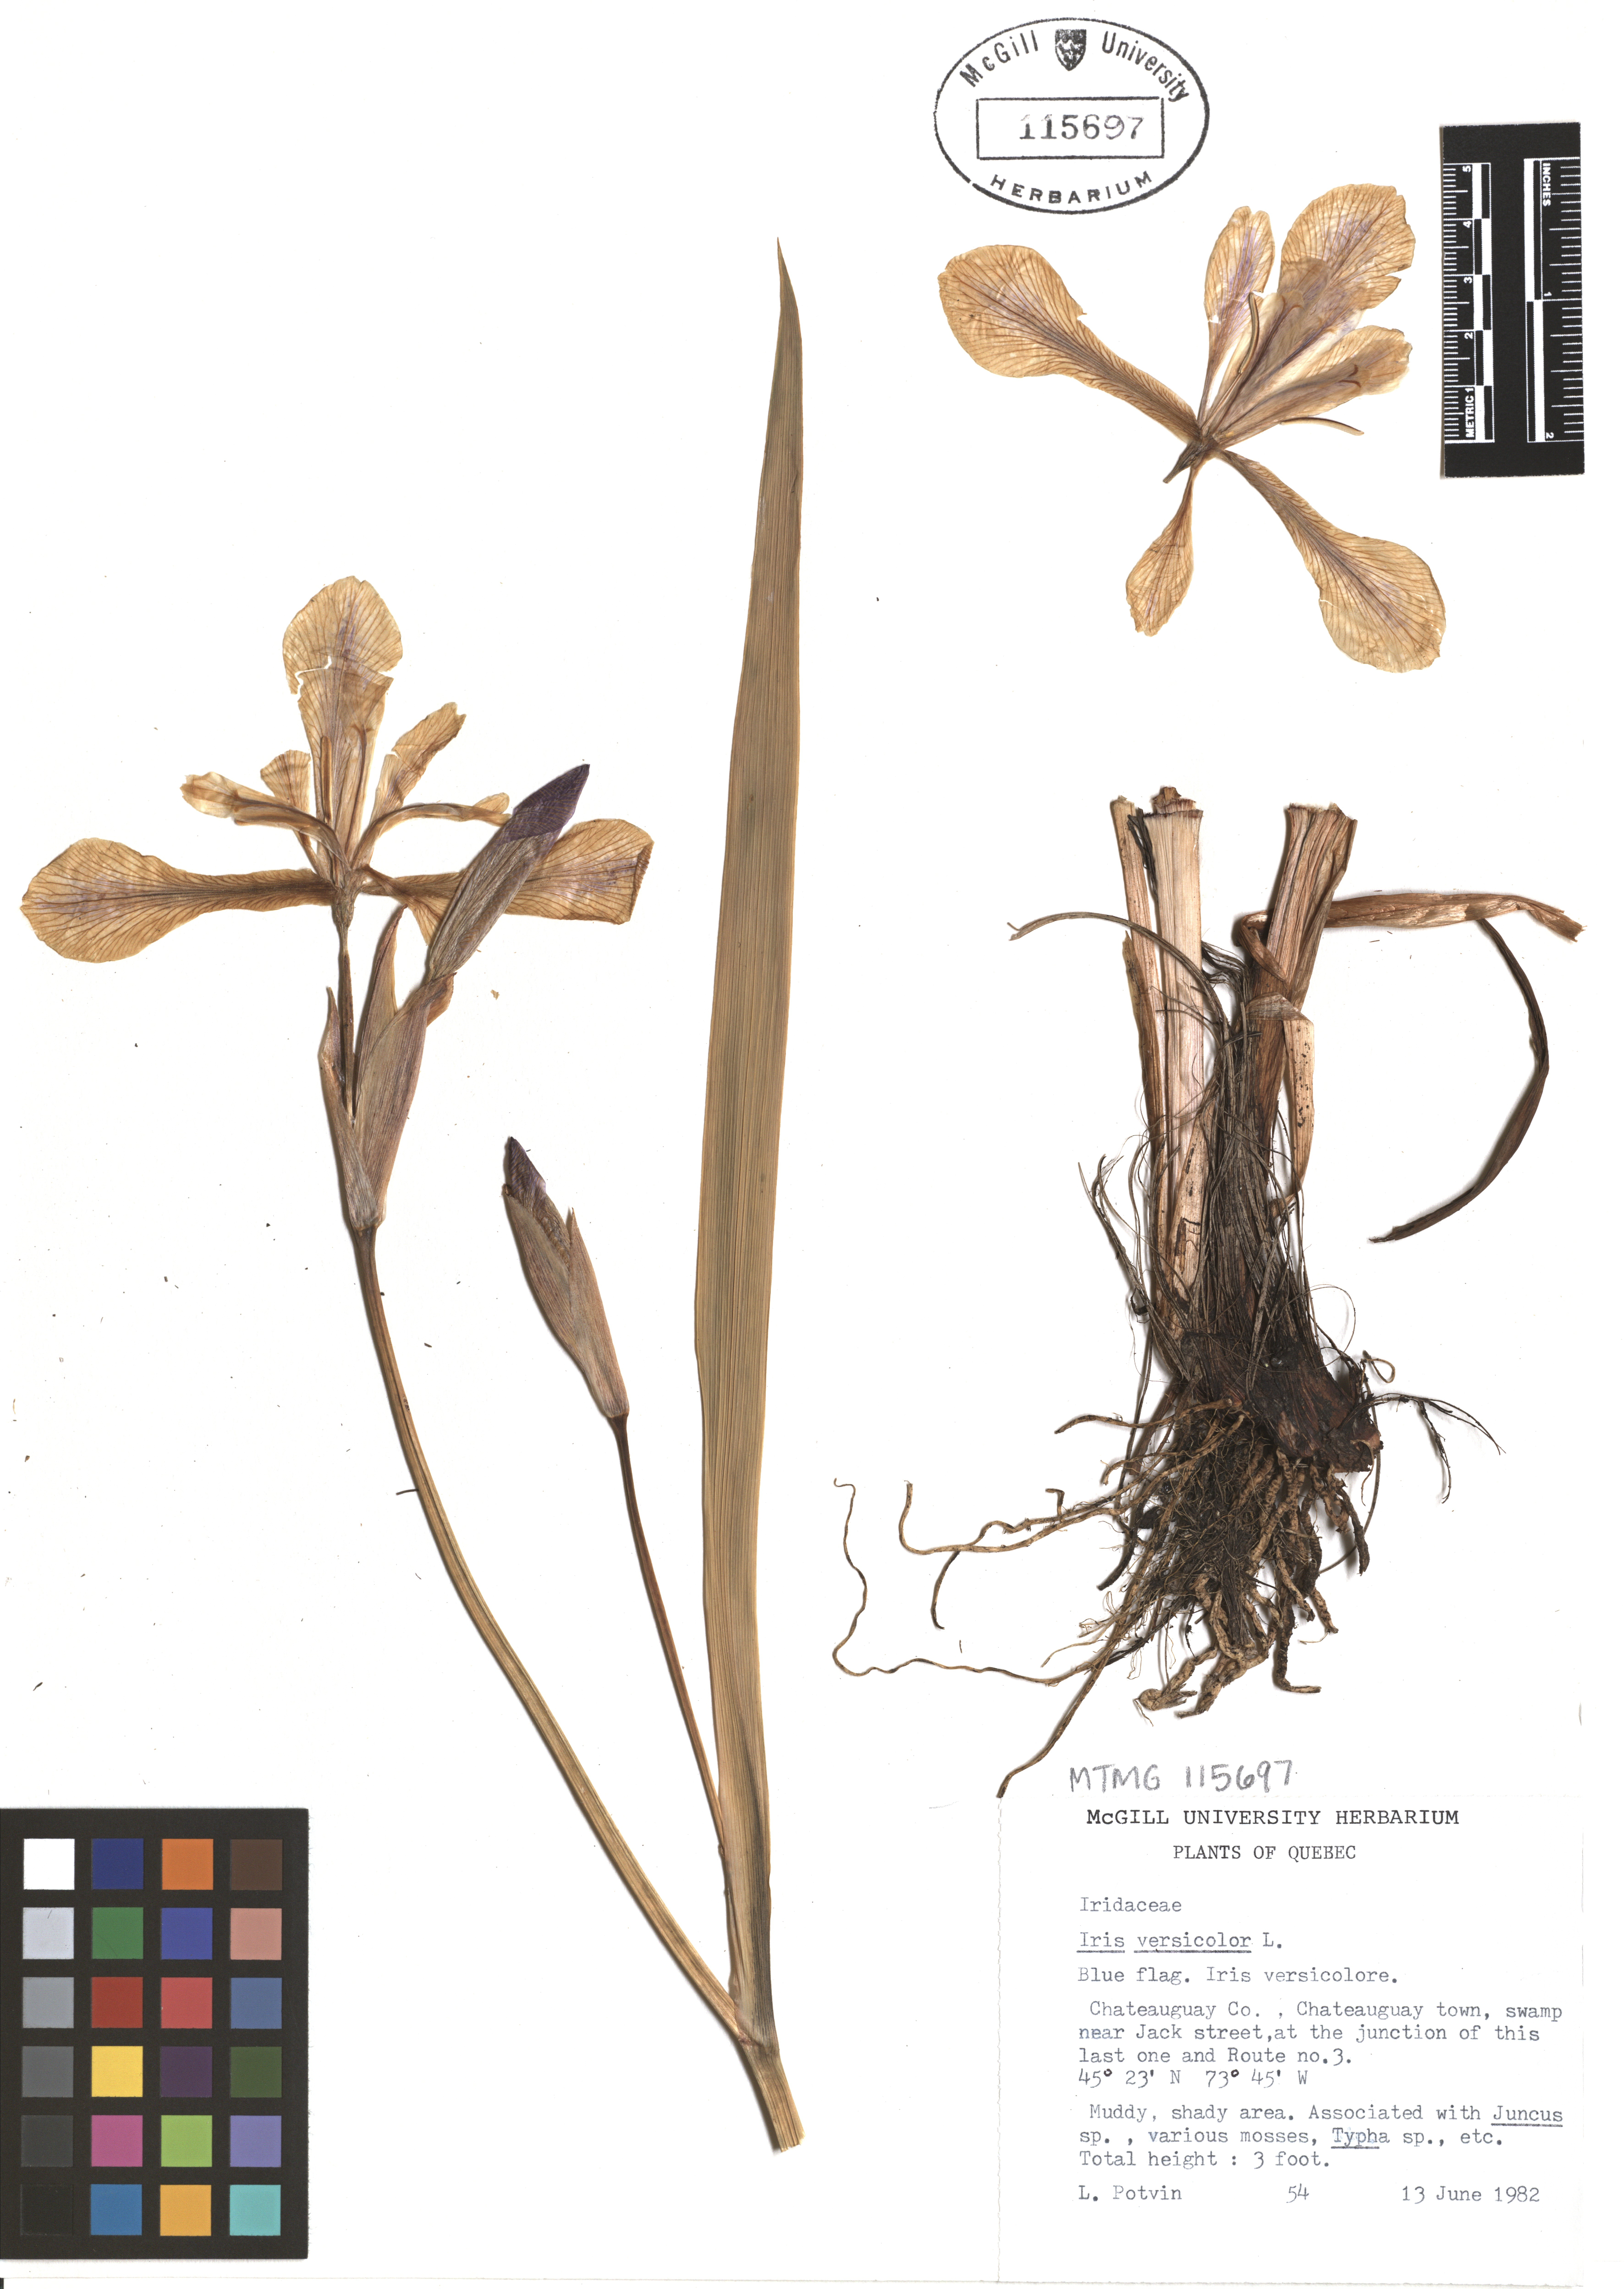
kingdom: Plantae
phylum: Tracheophyta
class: Liliopsida
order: Asparagales
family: Iridaceae
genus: Iris
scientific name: Iris versicolor
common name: Purple iris
